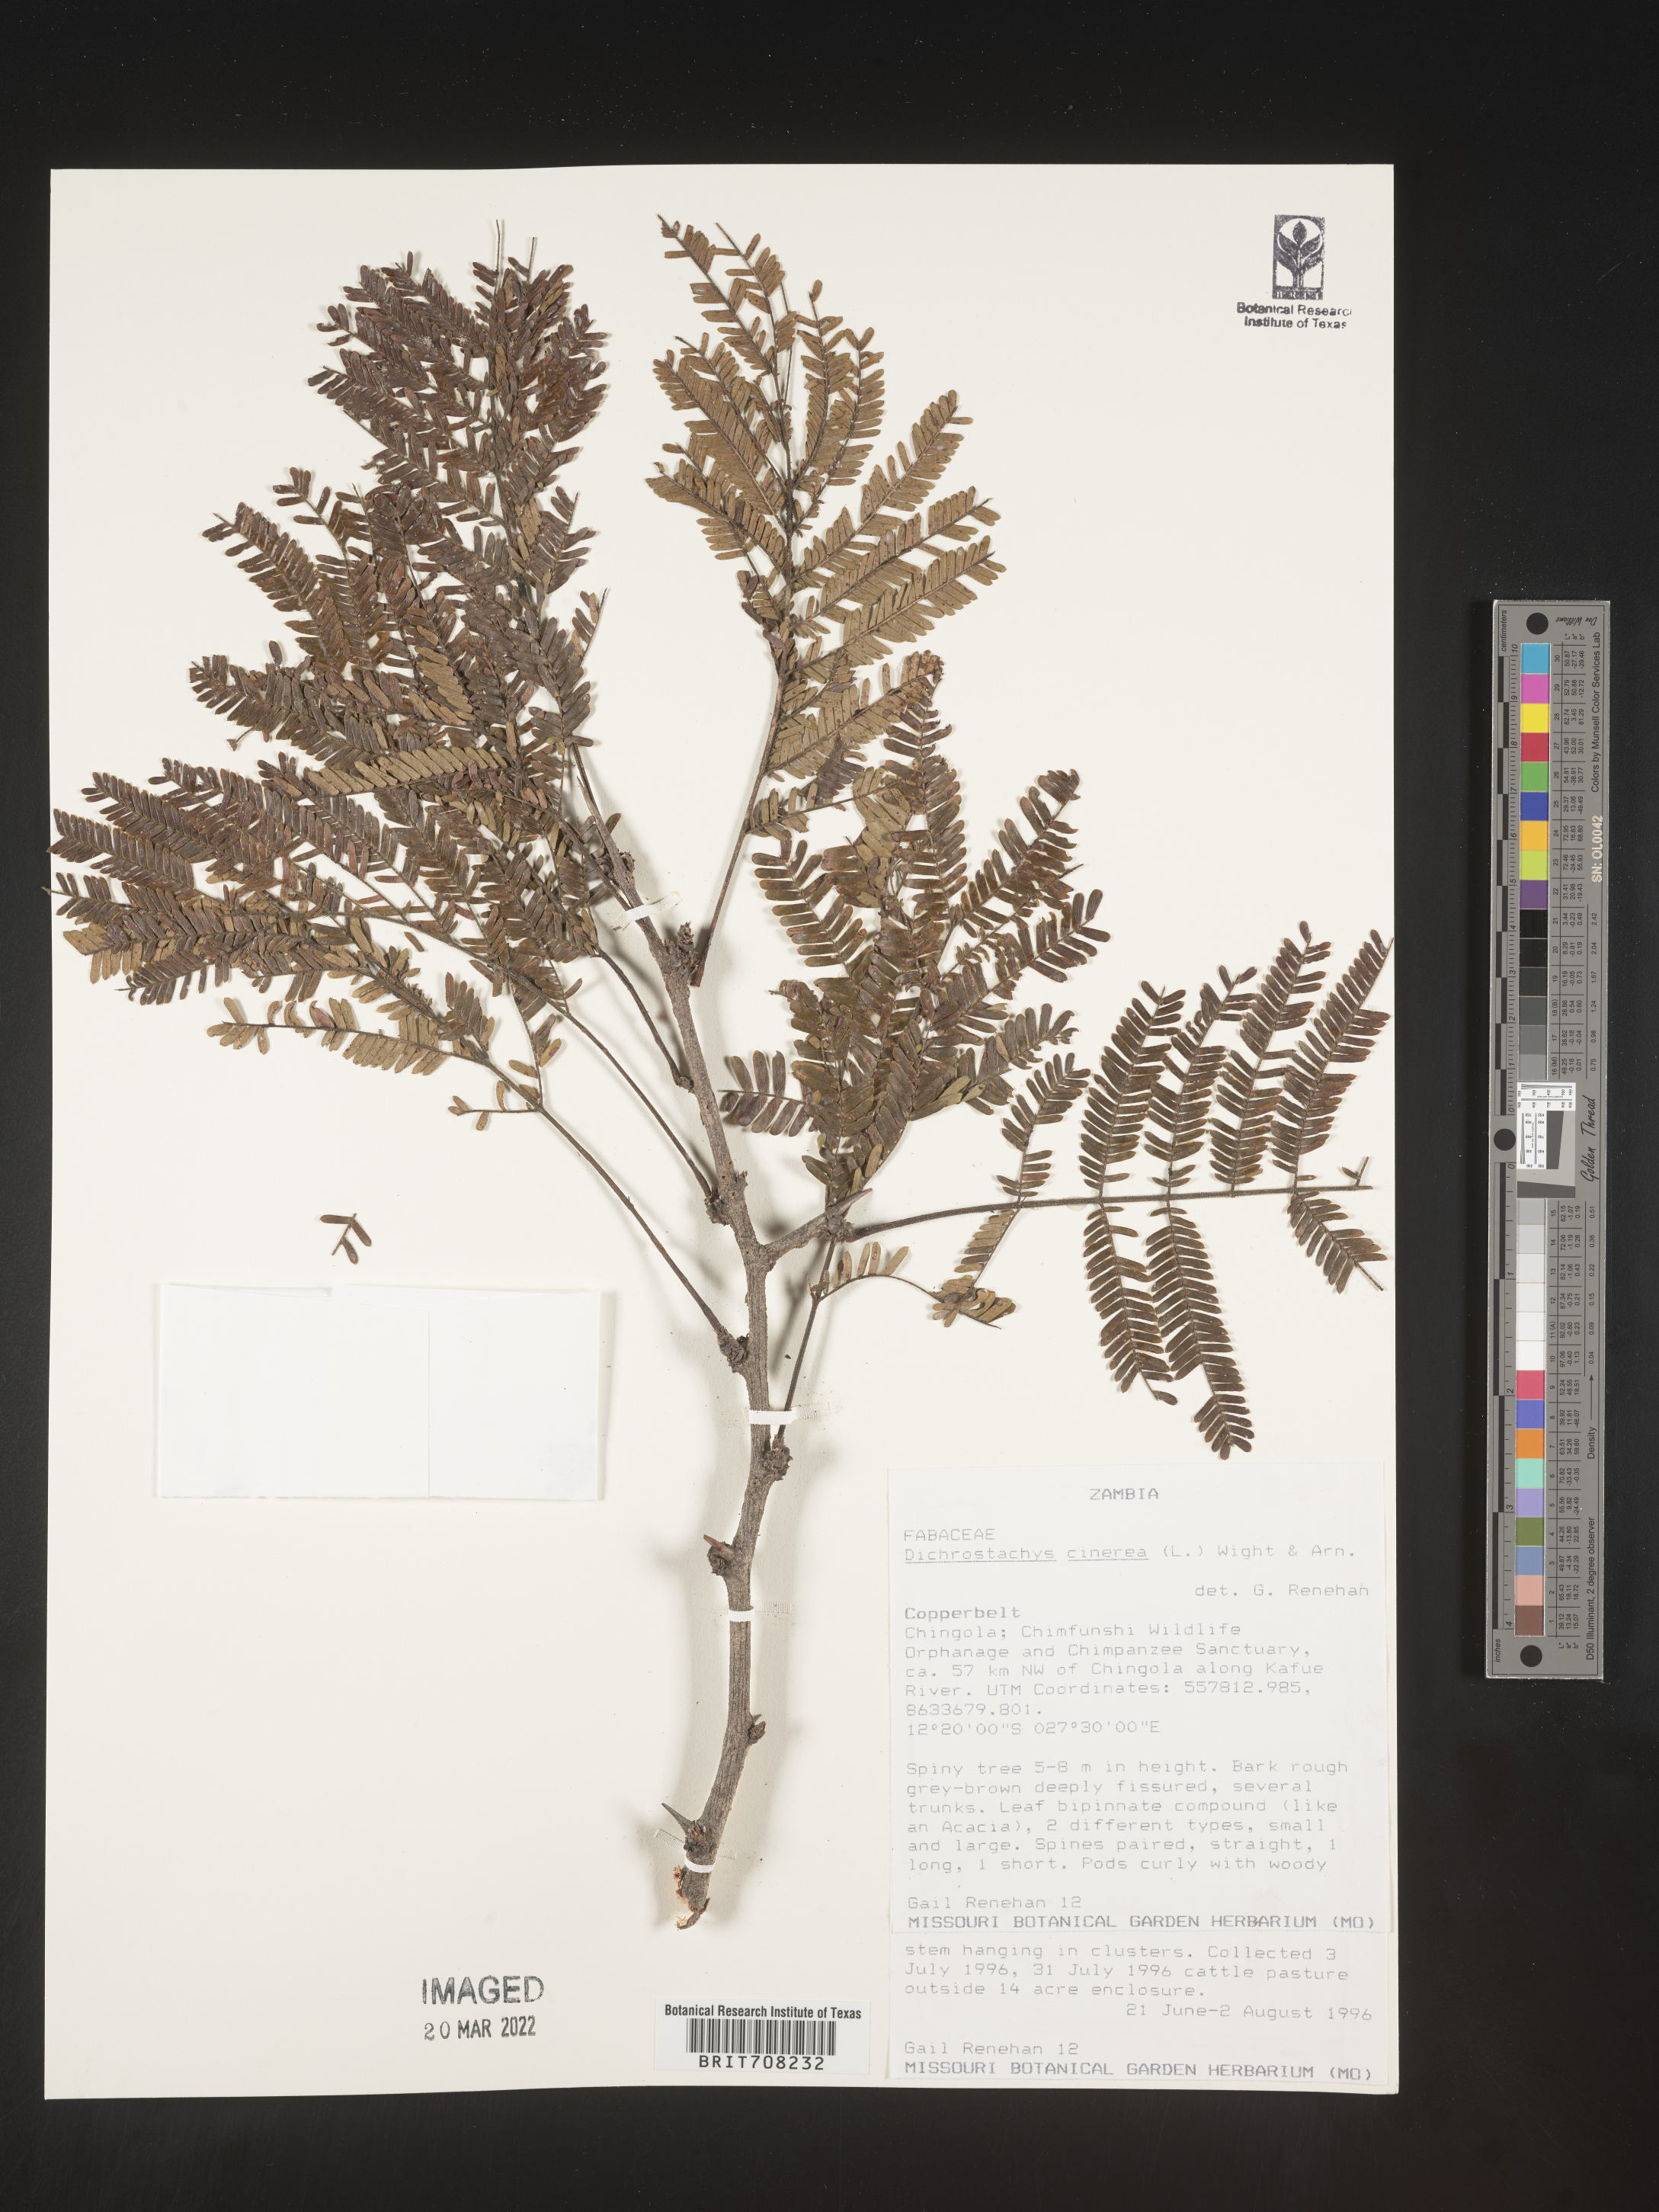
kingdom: Plantae
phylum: Tracheophyta
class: Magnoliopsida
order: Fabales
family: Fabaceae
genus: Dichrostachys
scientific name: Dichrostachys cinerea
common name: Sicklebush
